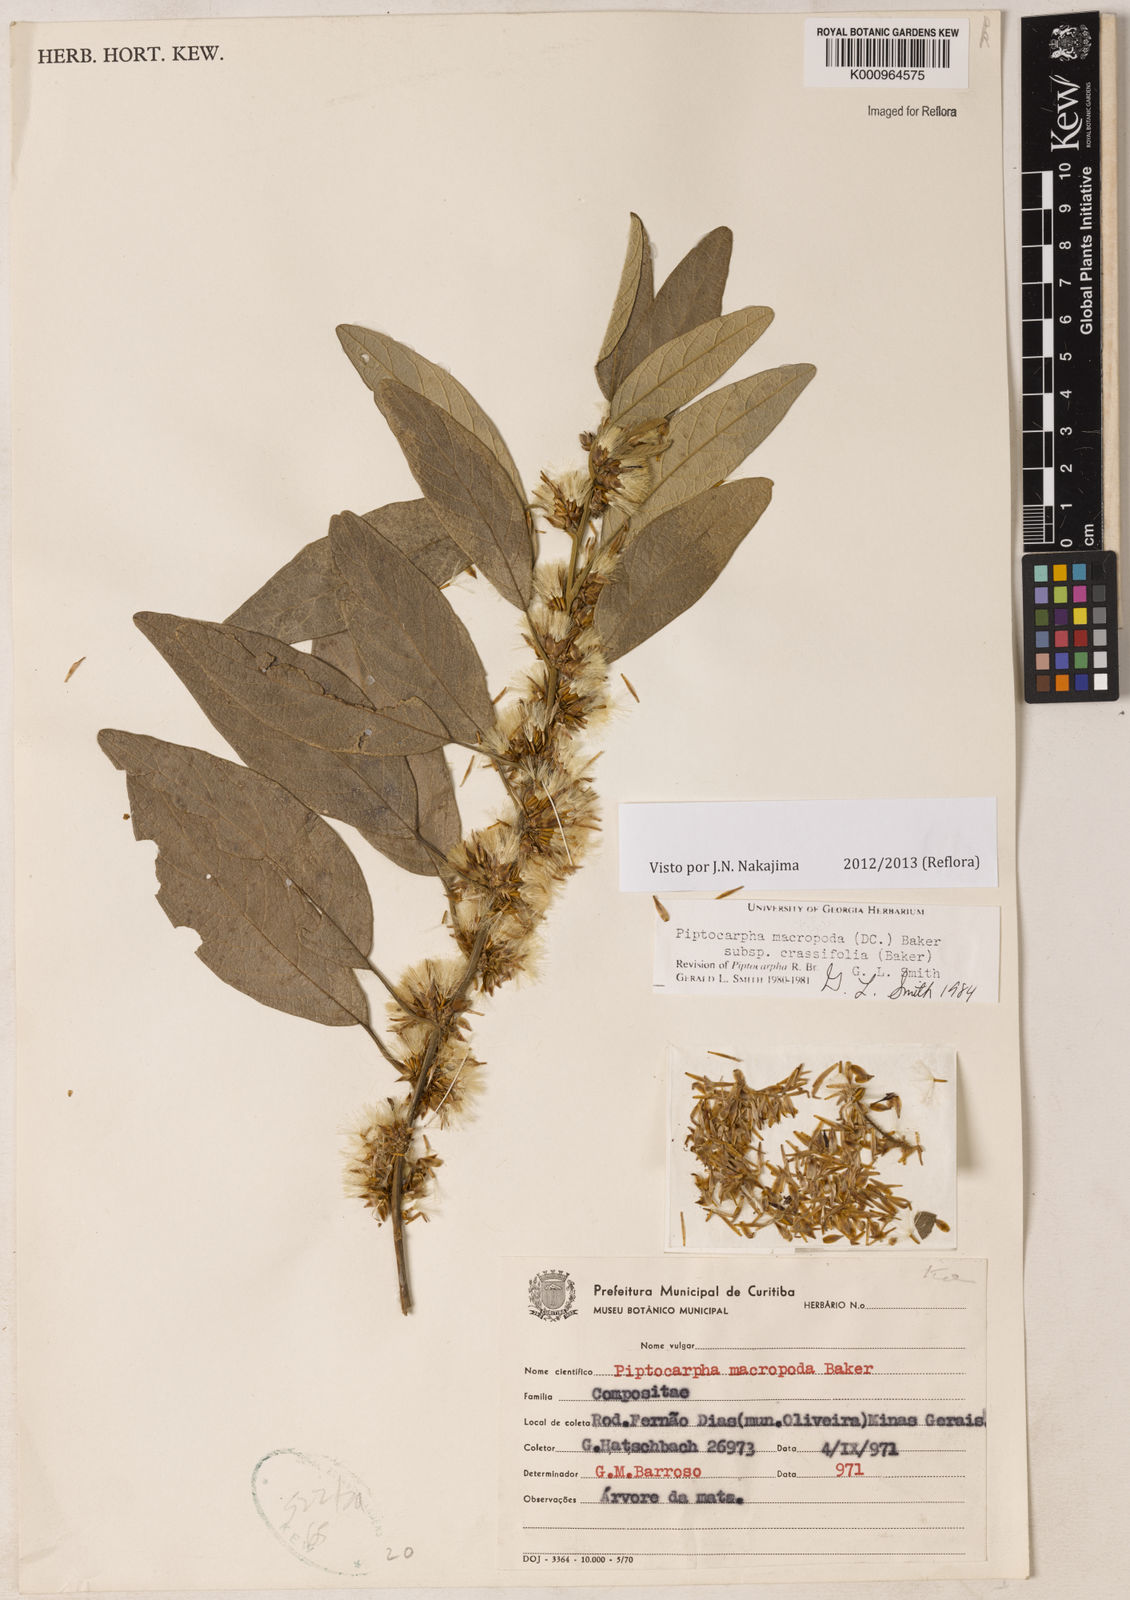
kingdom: Plantae
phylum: Tracheophyta
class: Magnoliopsida
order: Asterales
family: Asteraceae
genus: Piptocarpha
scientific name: Piptocarpha macropoda
